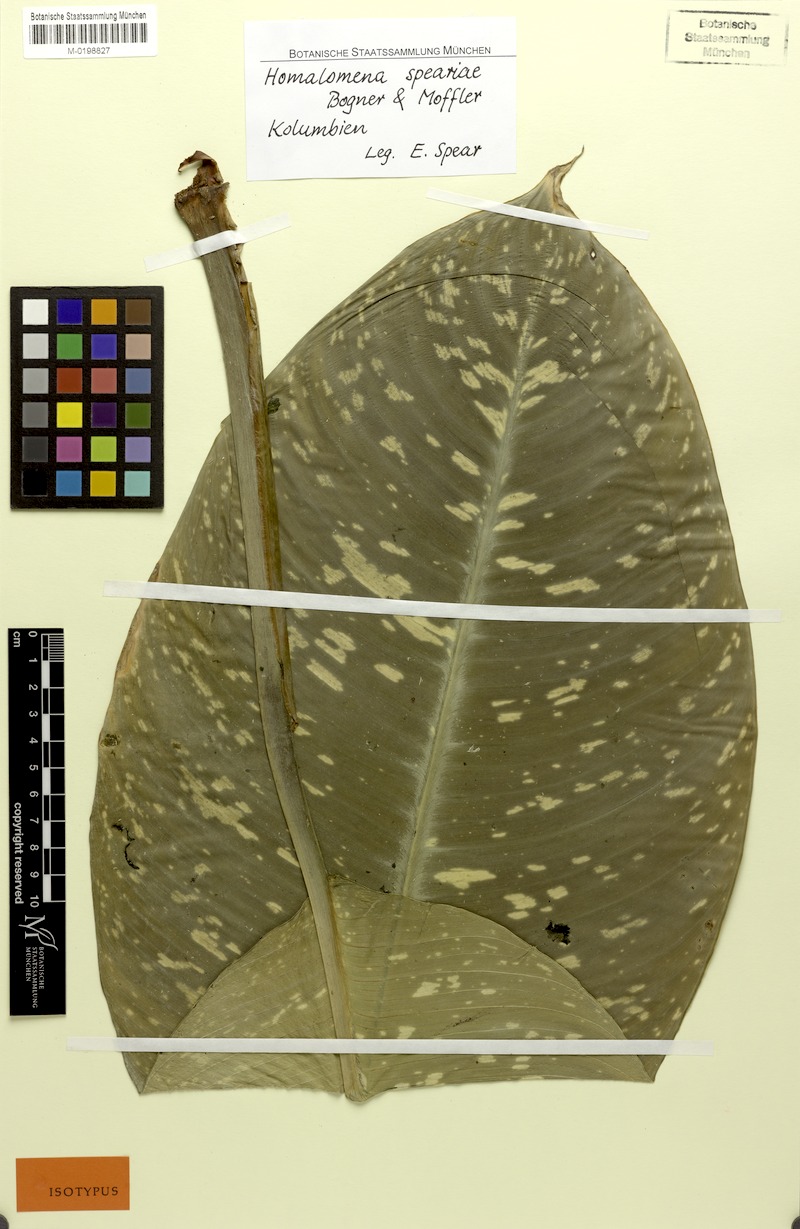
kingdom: Plantae
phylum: Tracheophyta
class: Liliopsida
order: Alismatales
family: Araceae
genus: Adelonema
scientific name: Adelonema speariae
